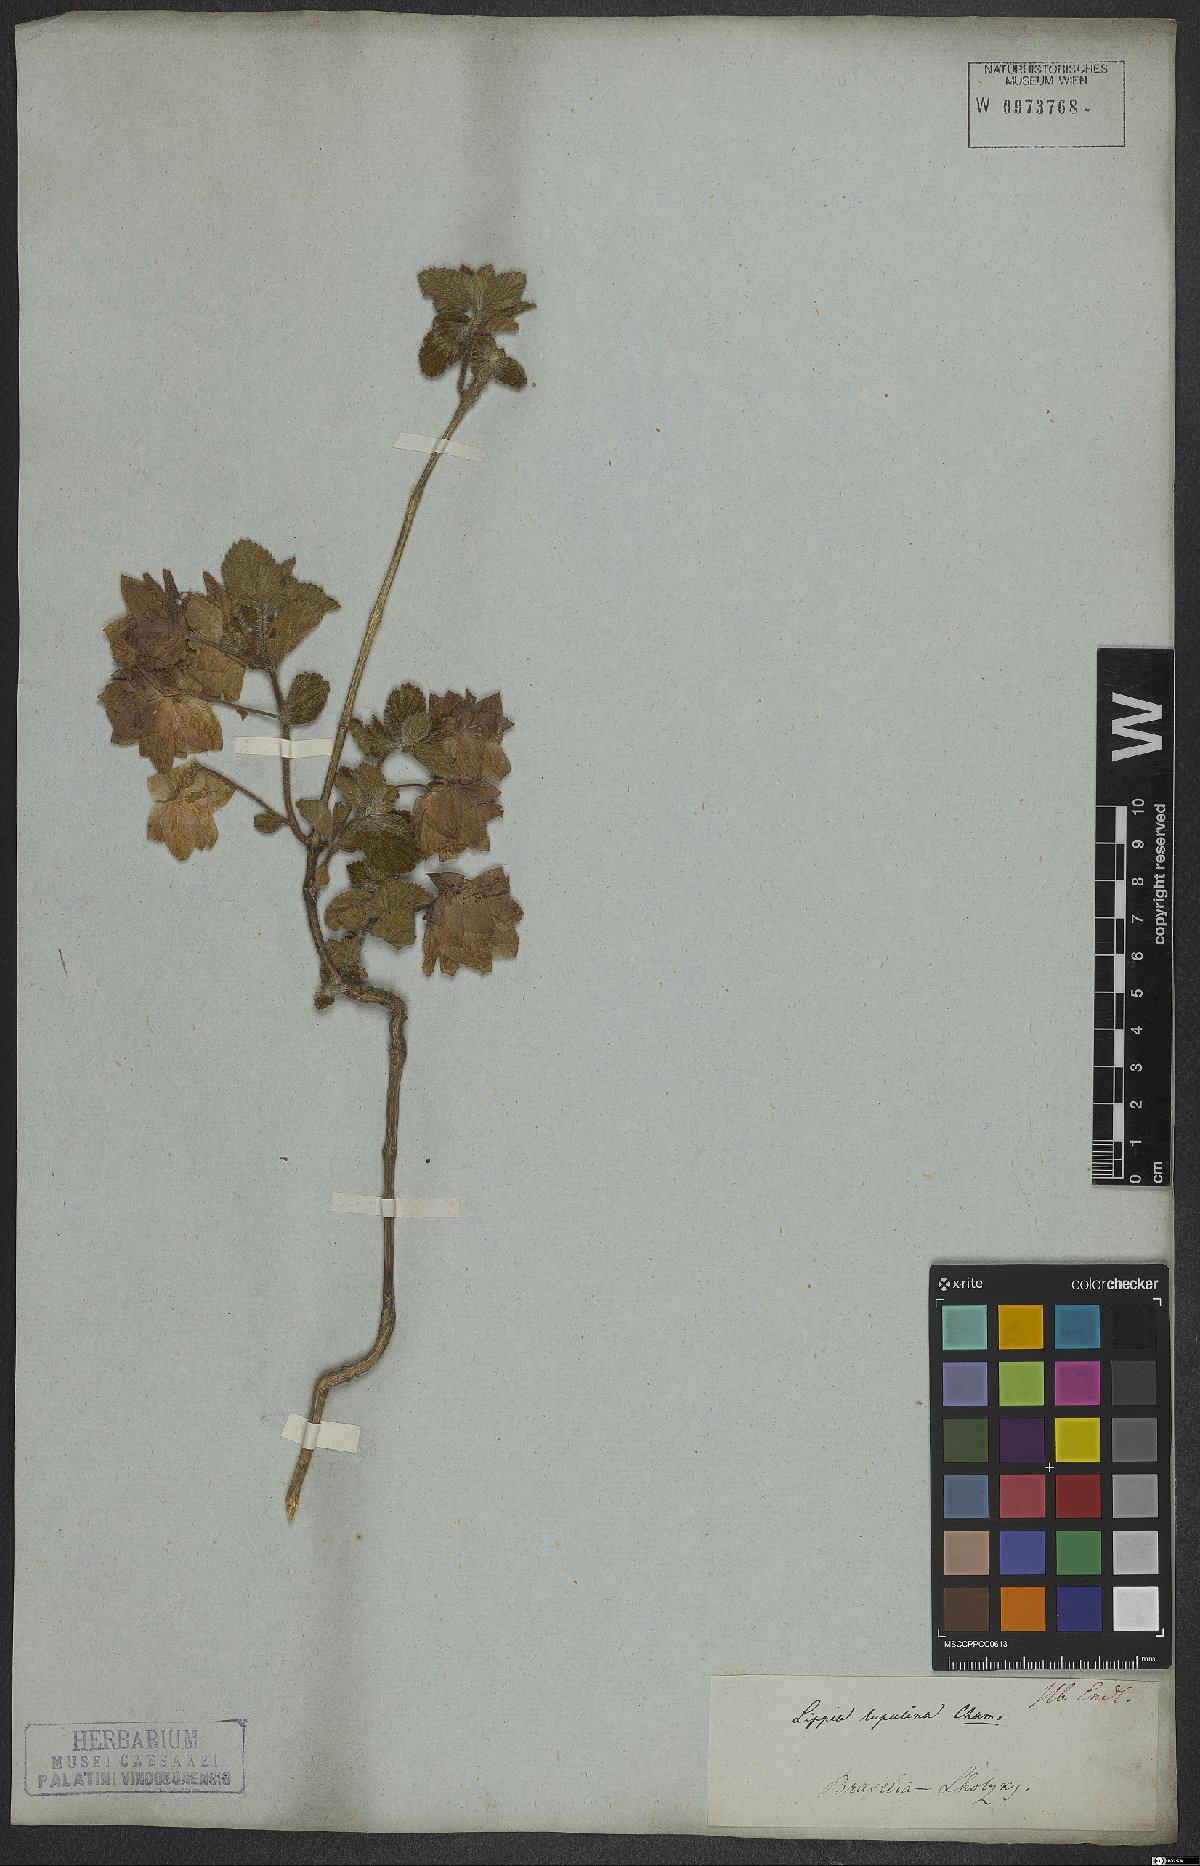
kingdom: Plantae
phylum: Tracheophyta
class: Magnoliopsida
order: Lamiales
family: Verbenaceae
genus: Lippia
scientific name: Lippia lupulina
